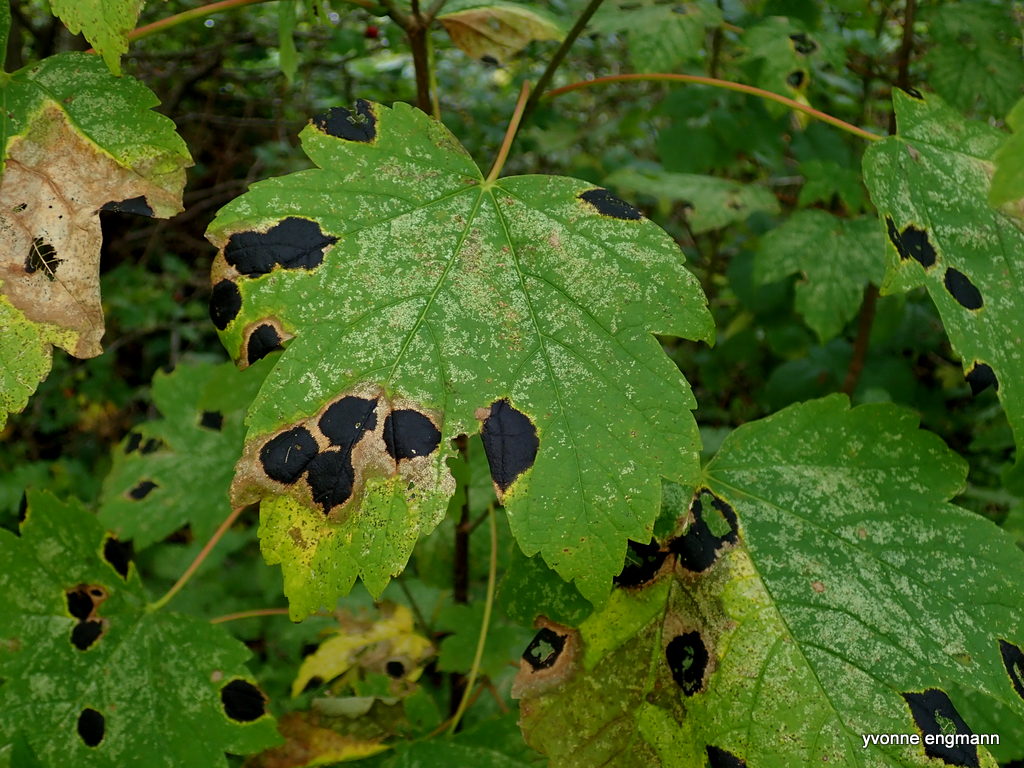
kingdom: Fungi
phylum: Ascomycota
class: Leotiomycetes
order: Rhytismatales
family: Rhytismataceae
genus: Rhytisma
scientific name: Rhytisma acerinum
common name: ahorn-rynkeplet
